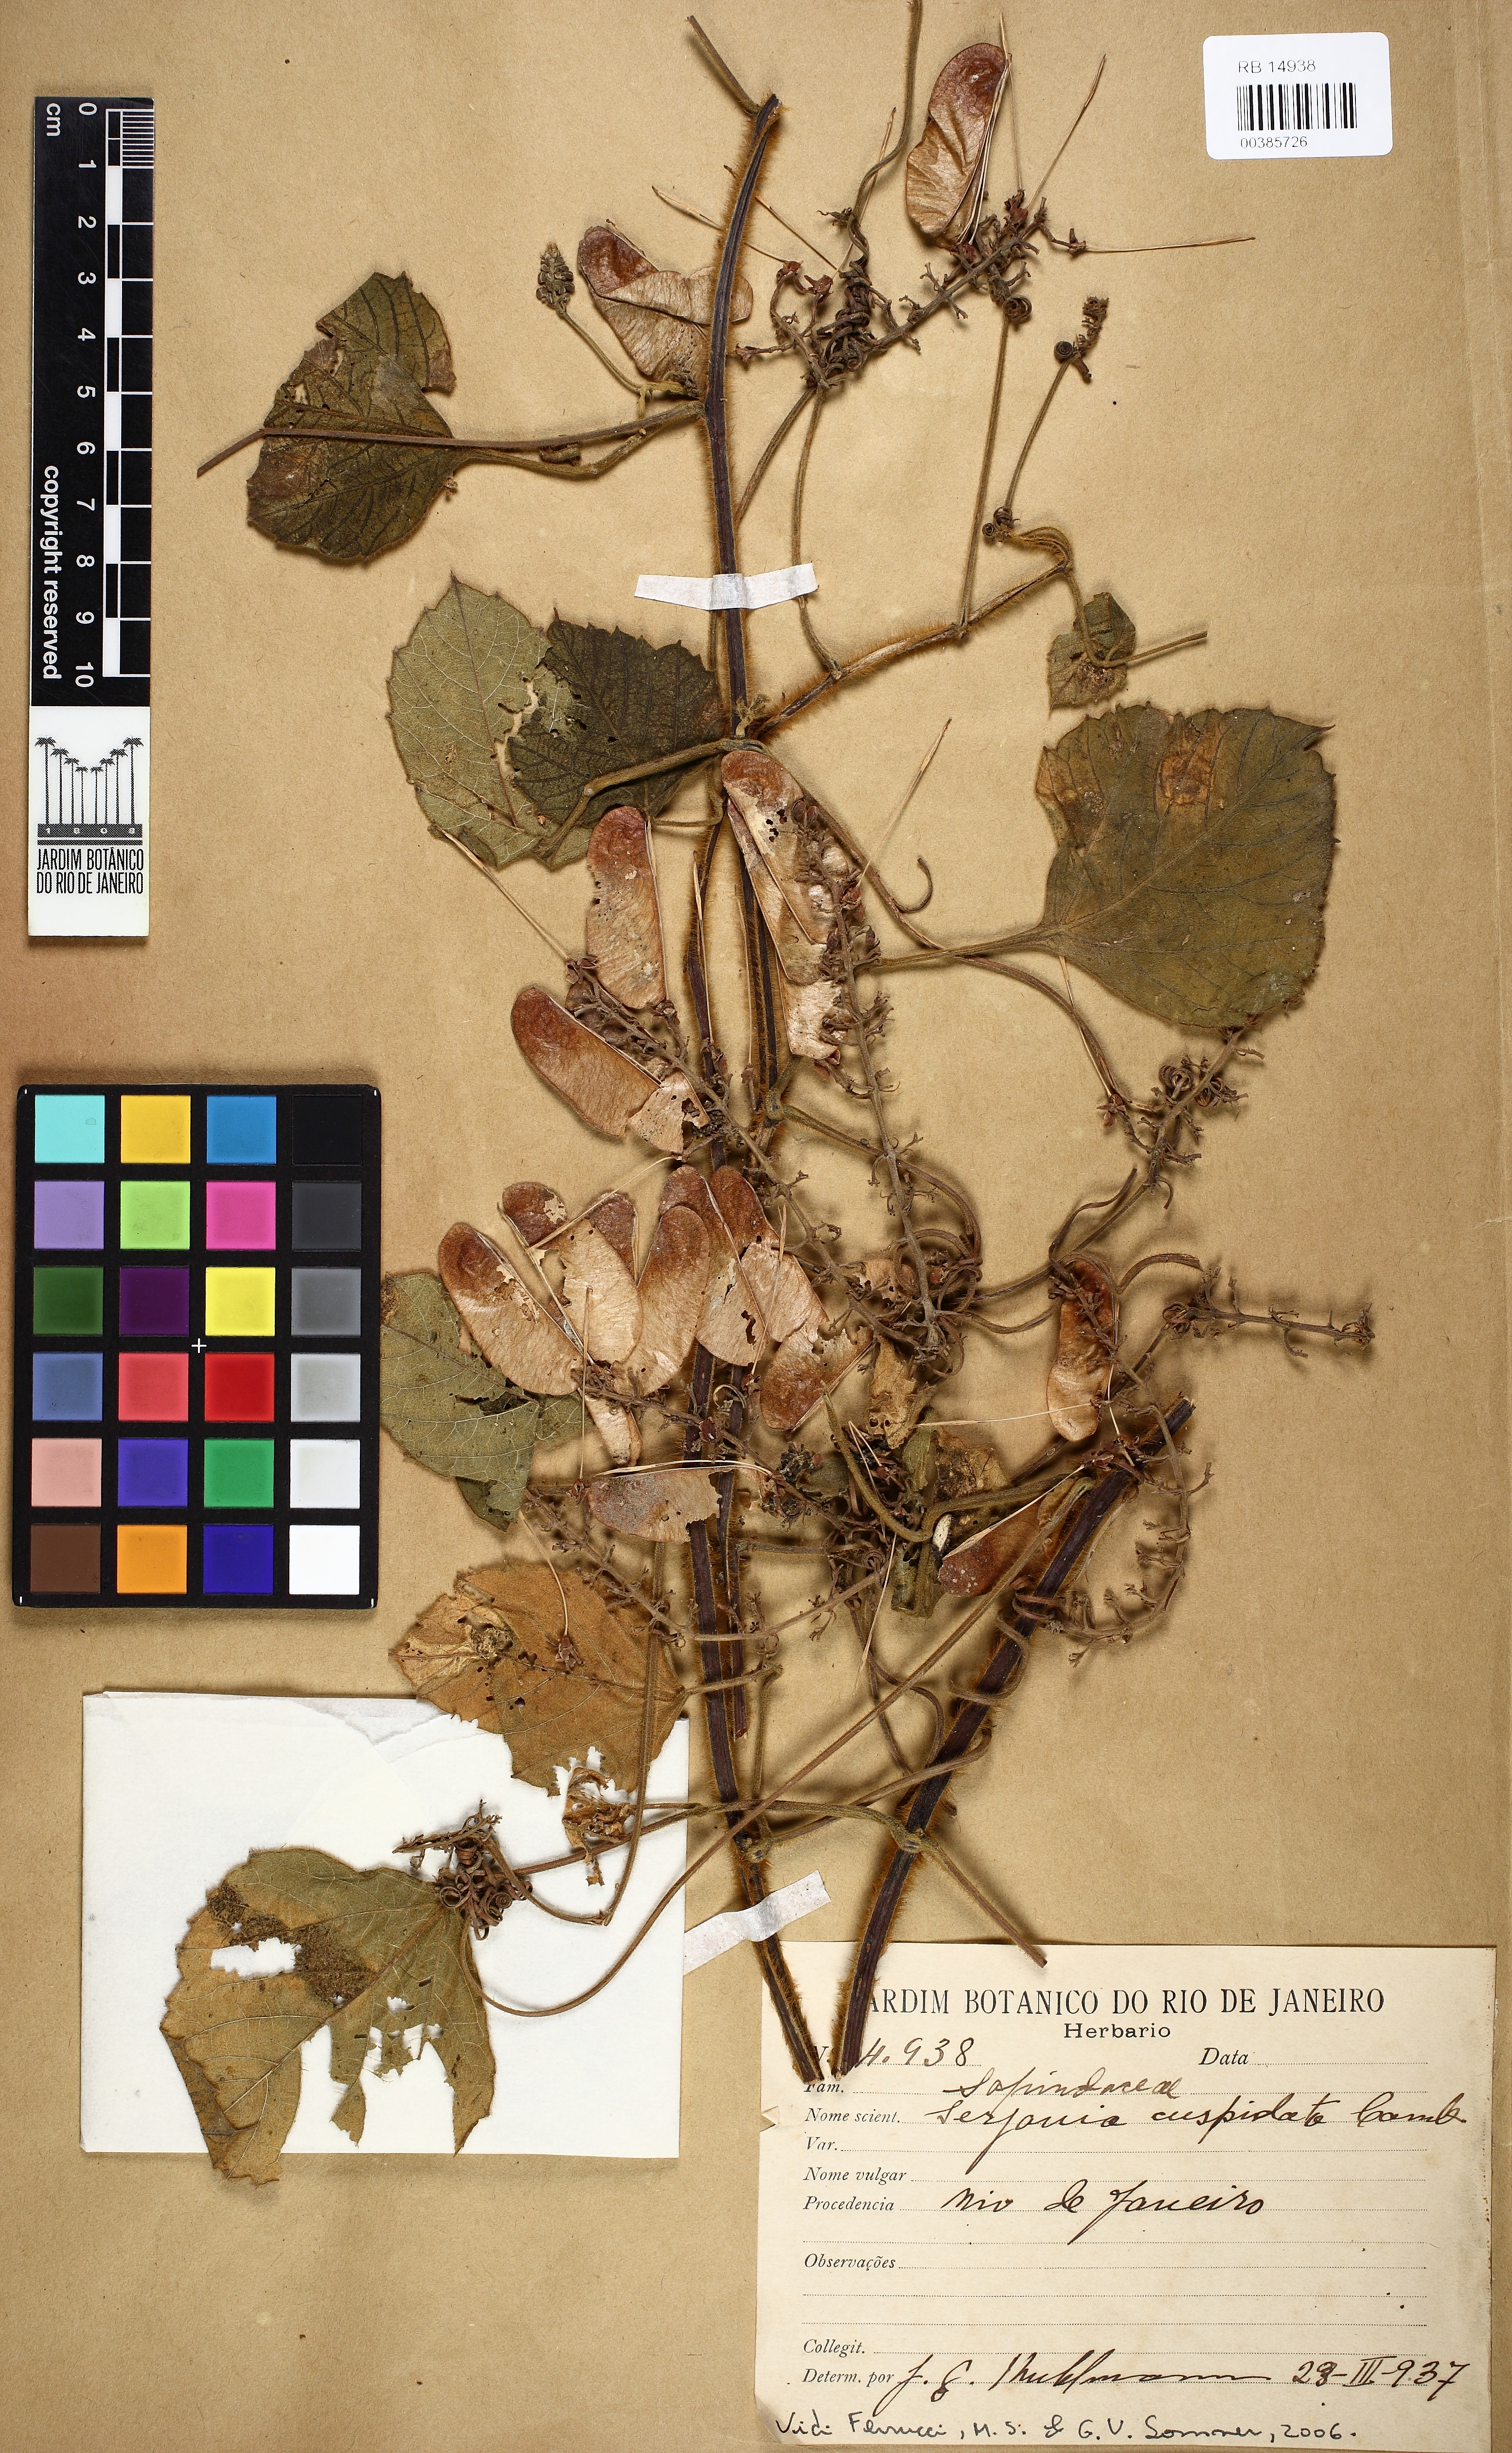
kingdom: Plantae
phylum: Tracheophyta
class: Magnoliopsida
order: Sapindales
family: Sapindaceae
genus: Serjania
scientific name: Serjania ferruginea
